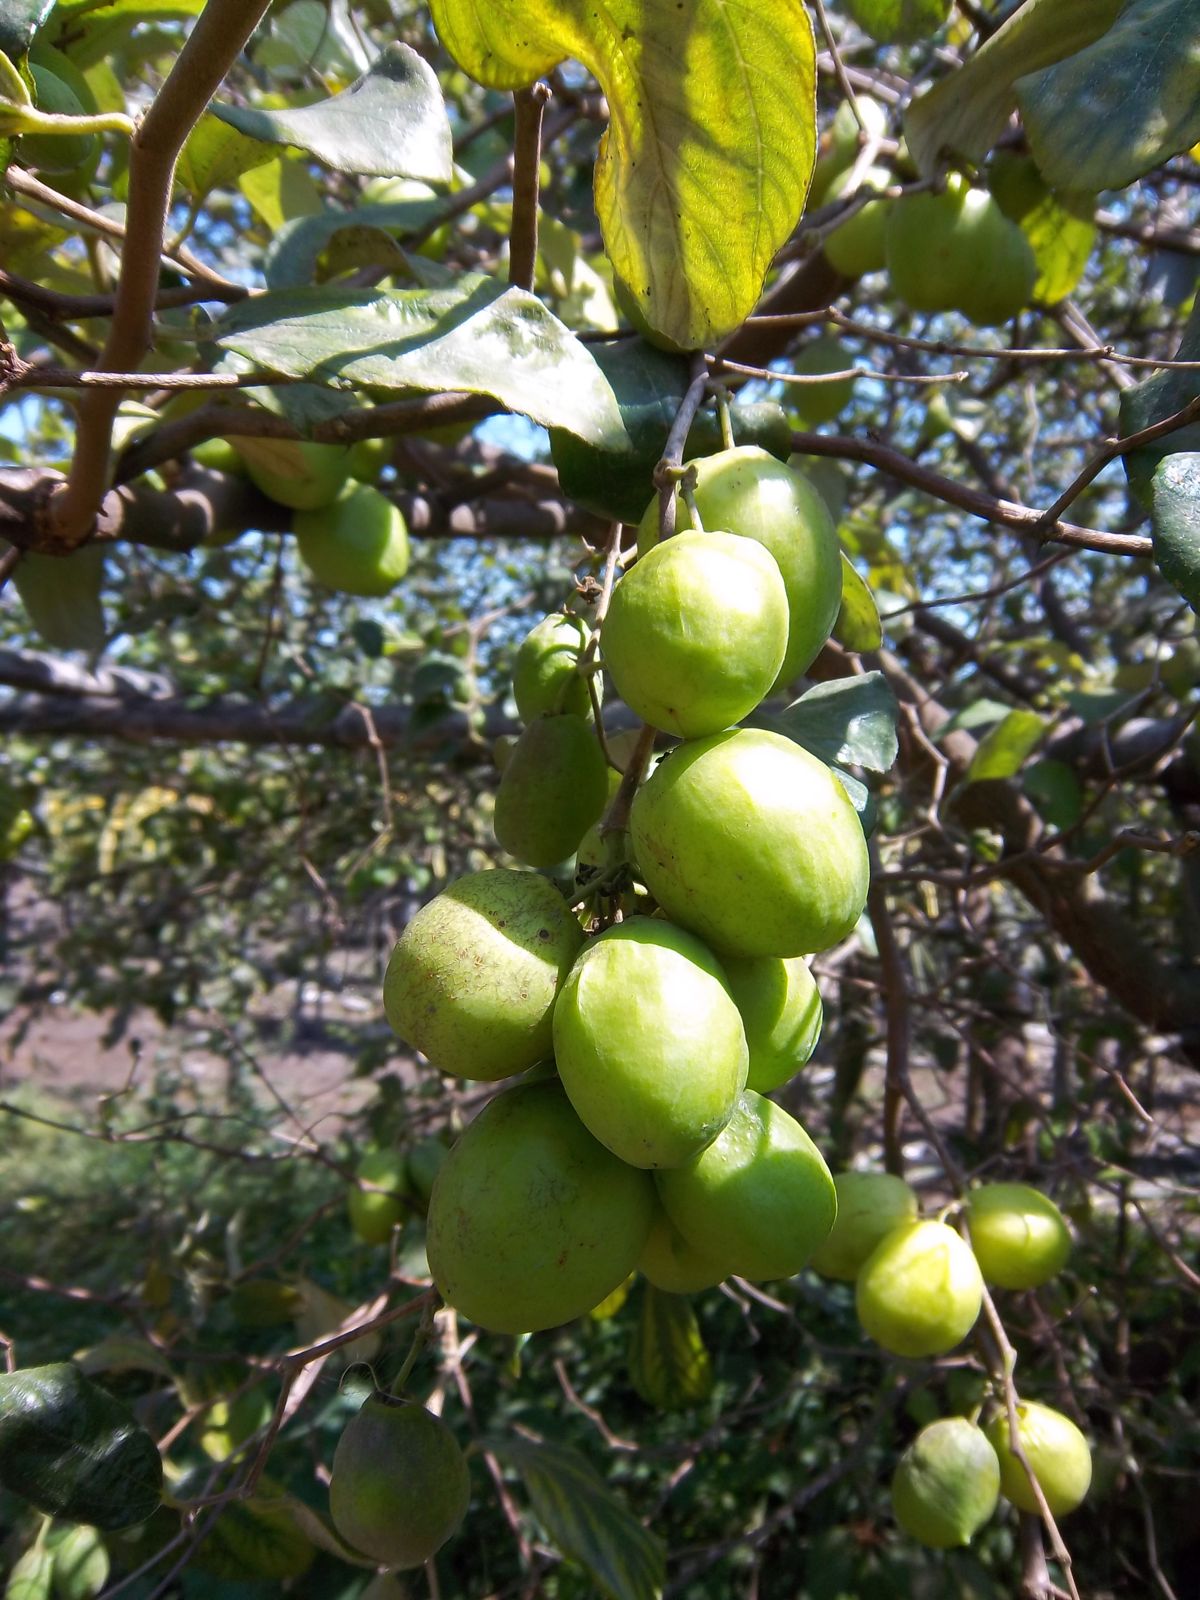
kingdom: Plantae
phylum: Tracheophyta
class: Magnoliopsida
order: Rosales
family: Rhamnaceae
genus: Ziziphus
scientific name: Ziziphus mauritiana
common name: Indian jujube
